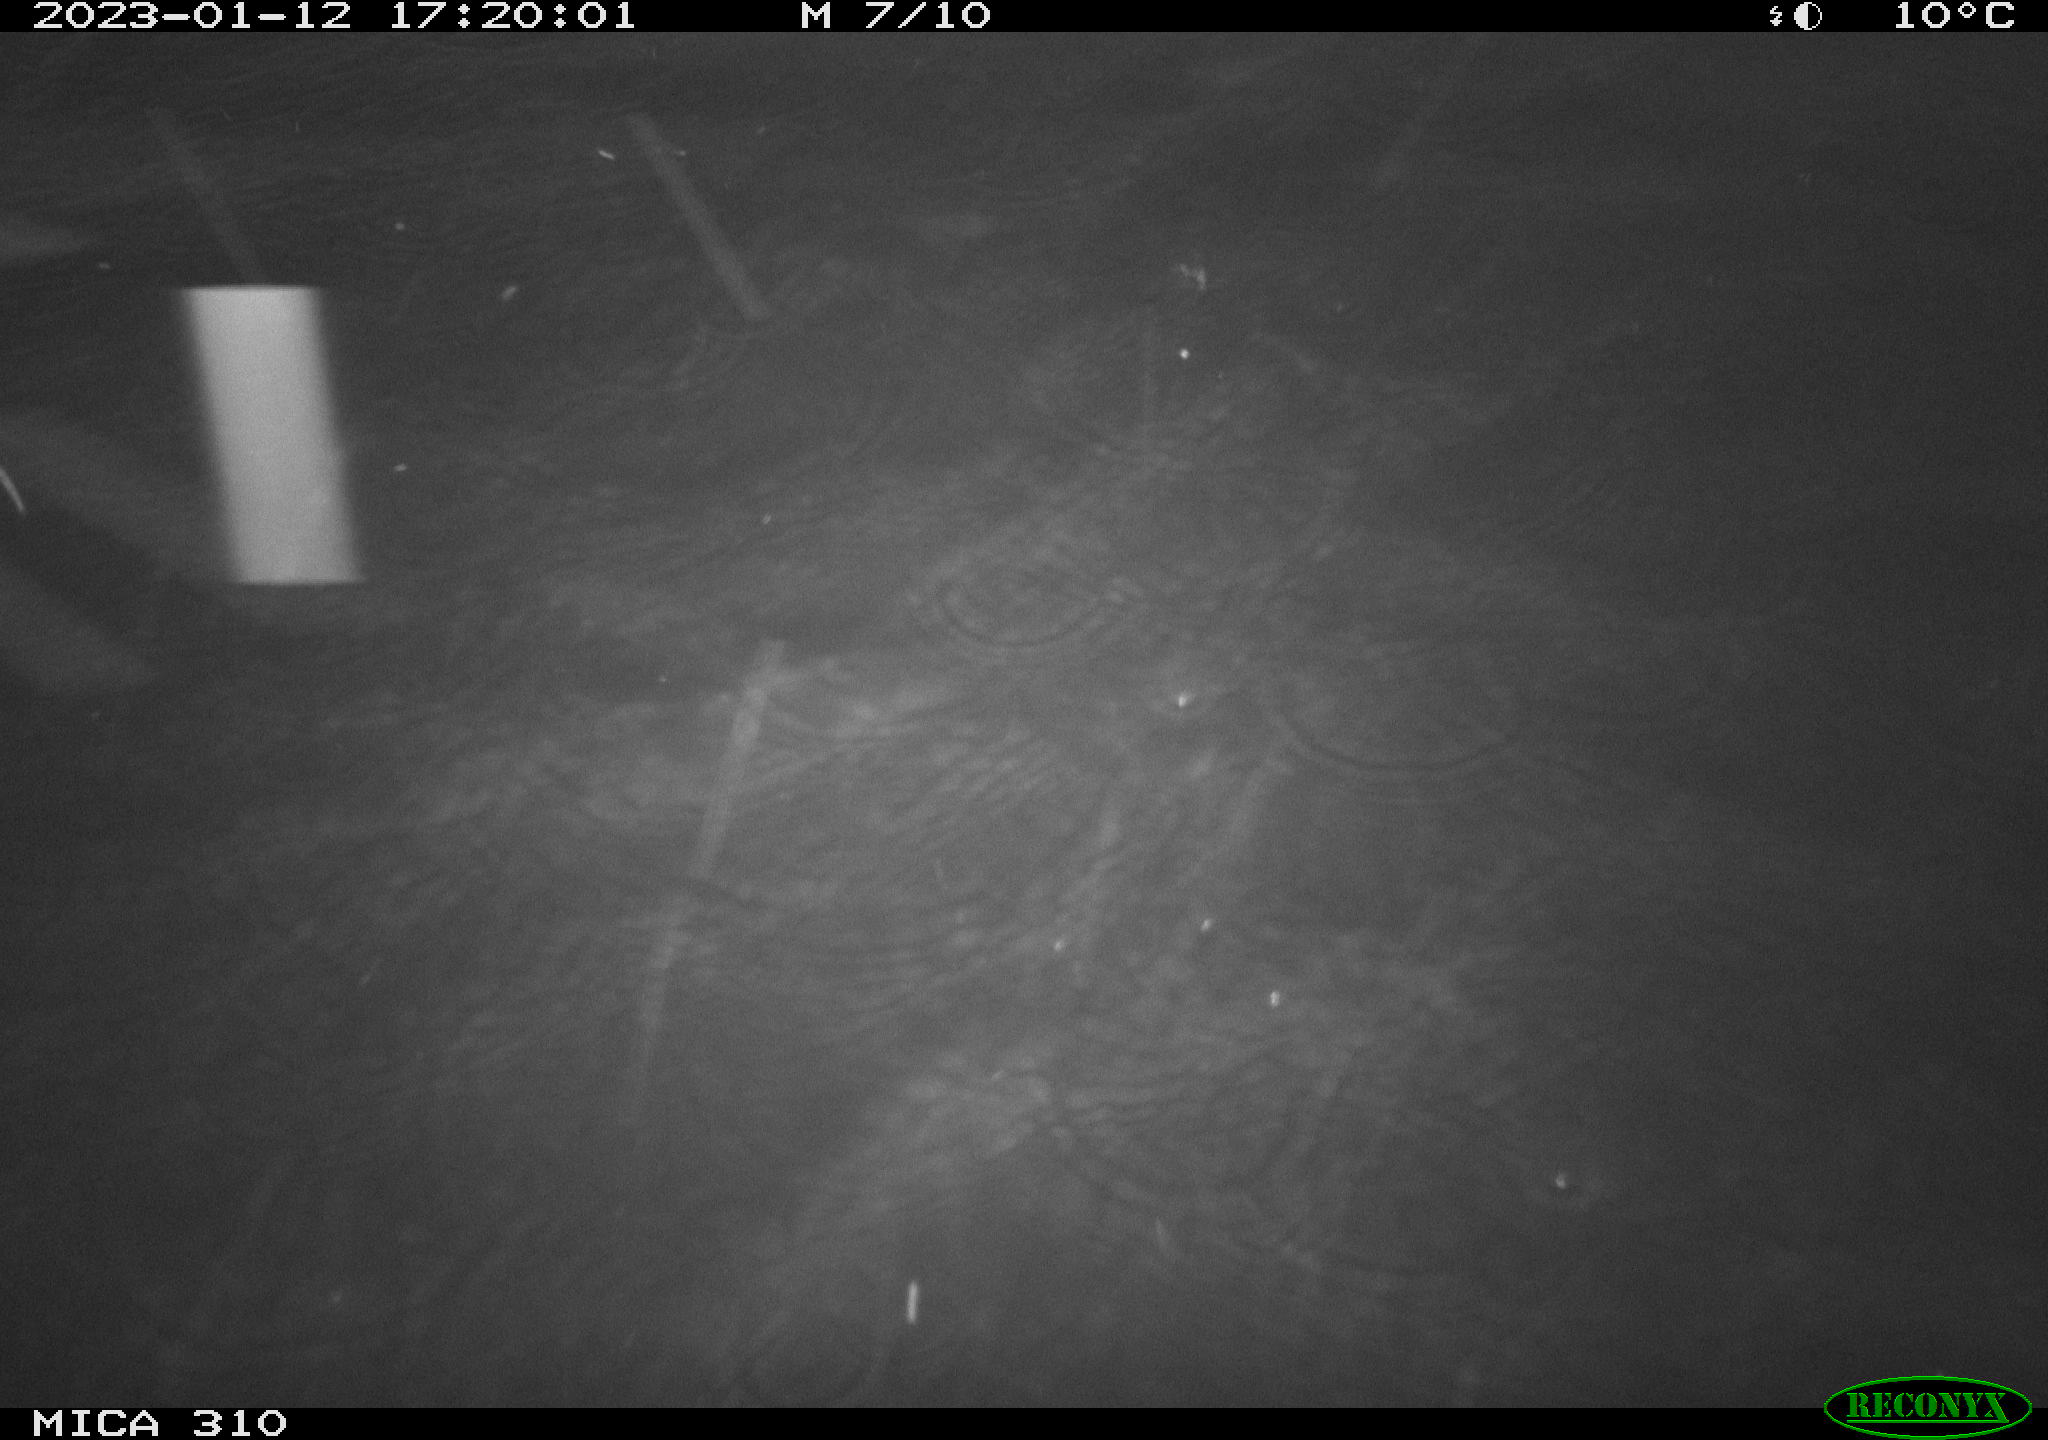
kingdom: Animalia
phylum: Chordata
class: Mammalia
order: Rodentia
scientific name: Rodentia
